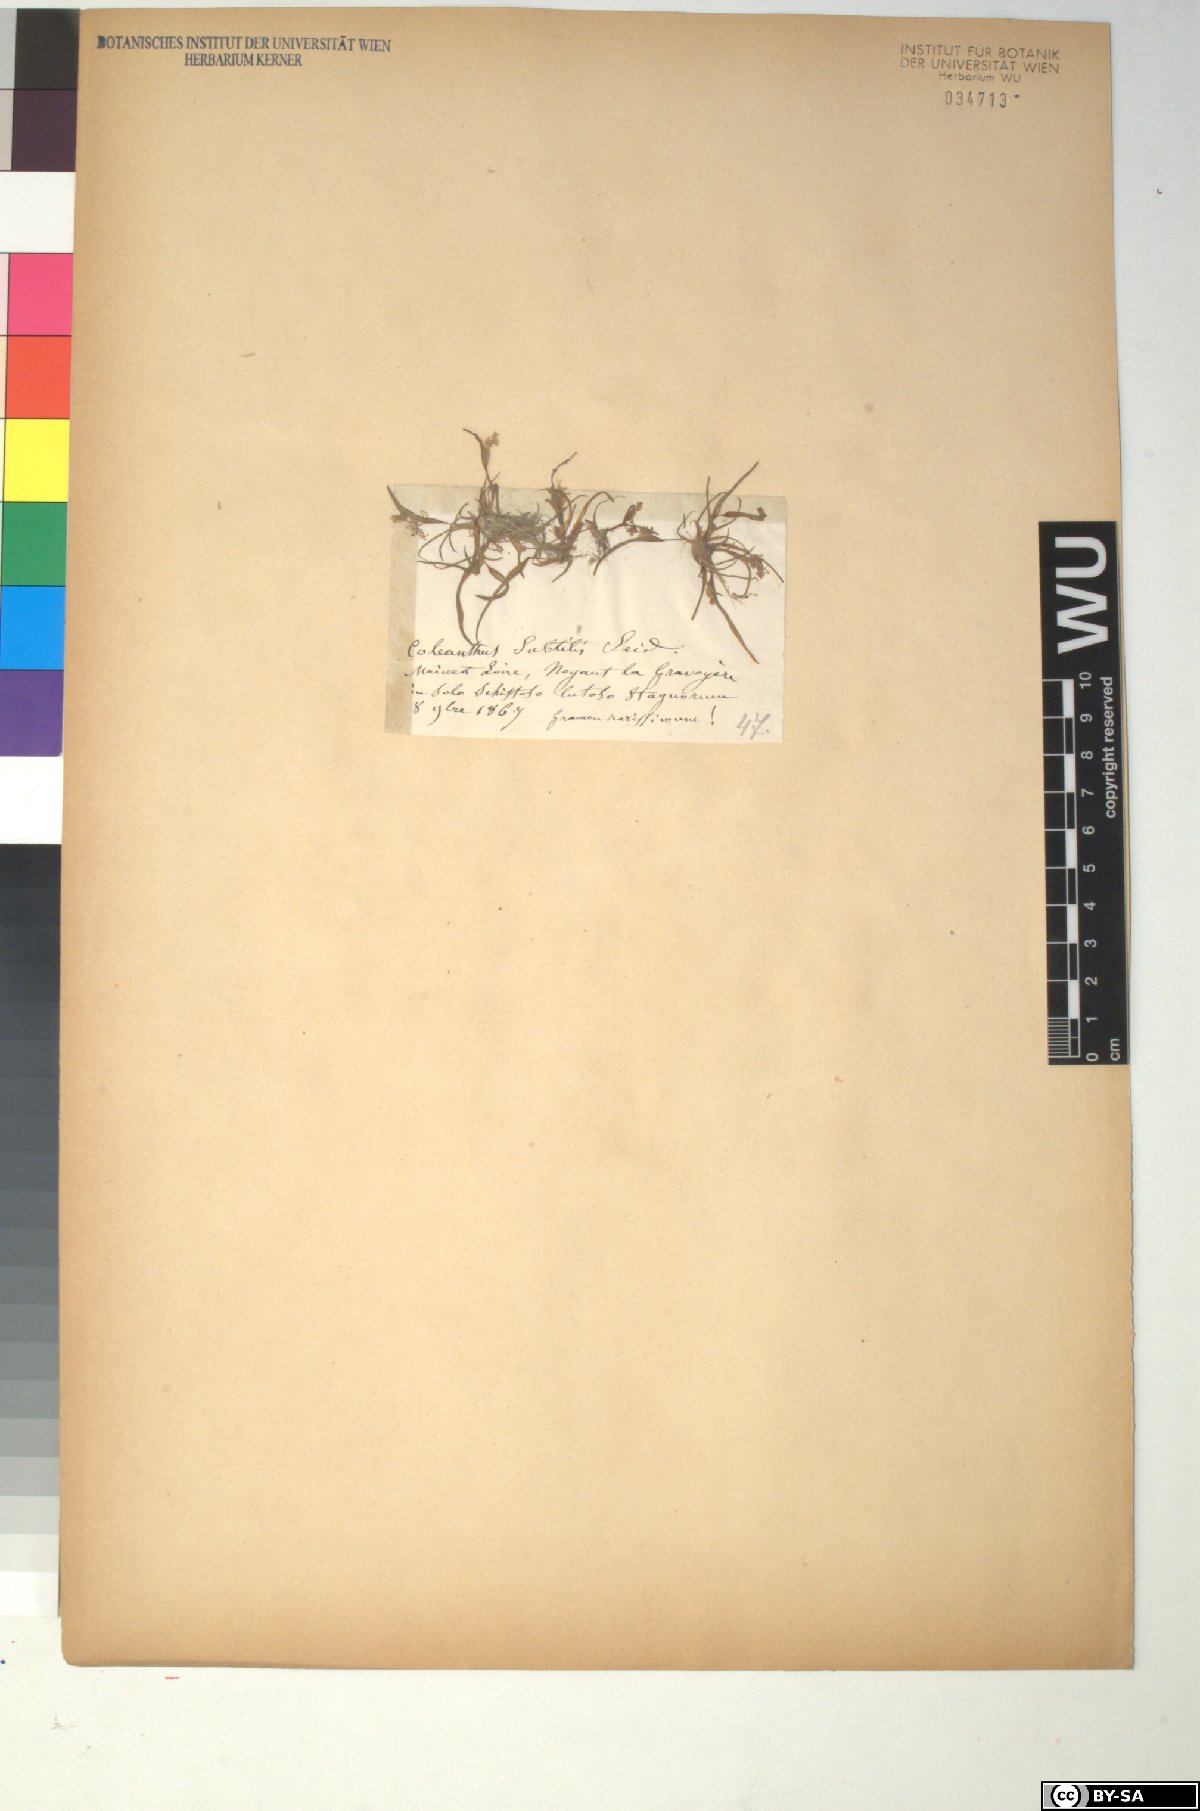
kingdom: Plantae
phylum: Tracheophyta
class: Liliopsida
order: Poales
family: Poaceae
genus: Coleanthus
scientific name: Coleanthus subtilis
